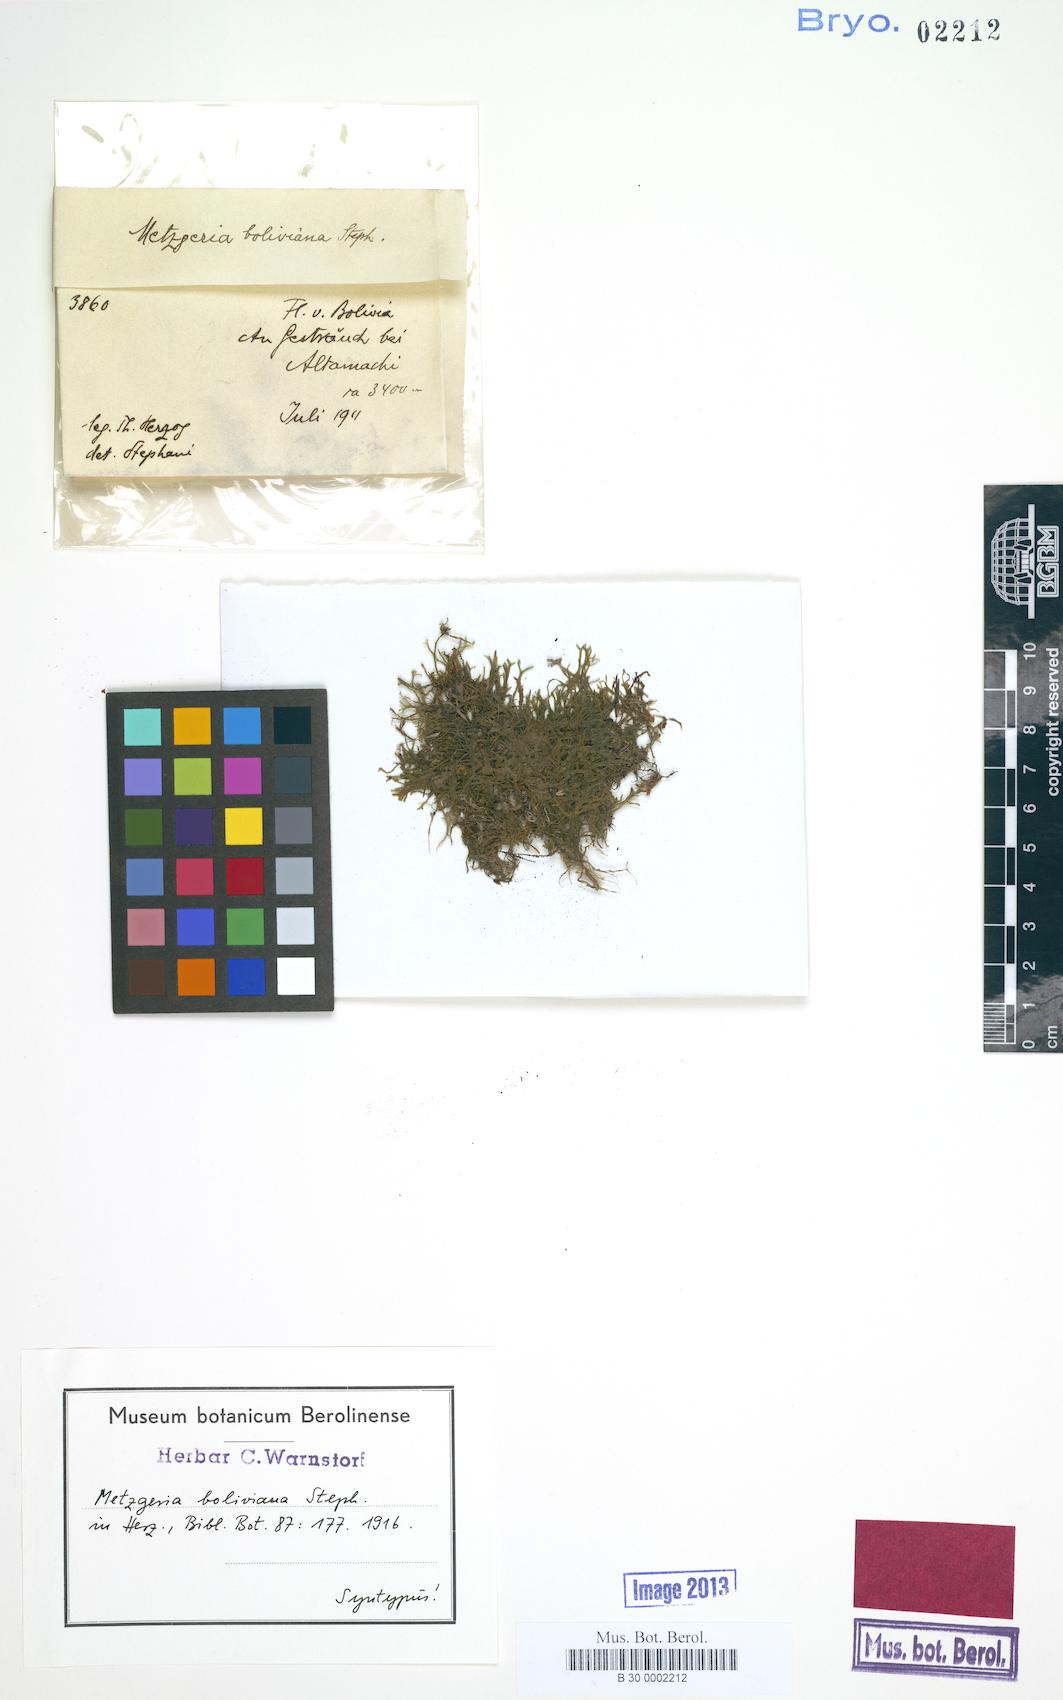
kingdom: Plantae
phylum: Marchantiophyta
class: Jungermanniopsida
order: Metzgeriales
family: Metzgeriaceae
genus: Metzgeria
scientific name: Metzgeria claviflora
